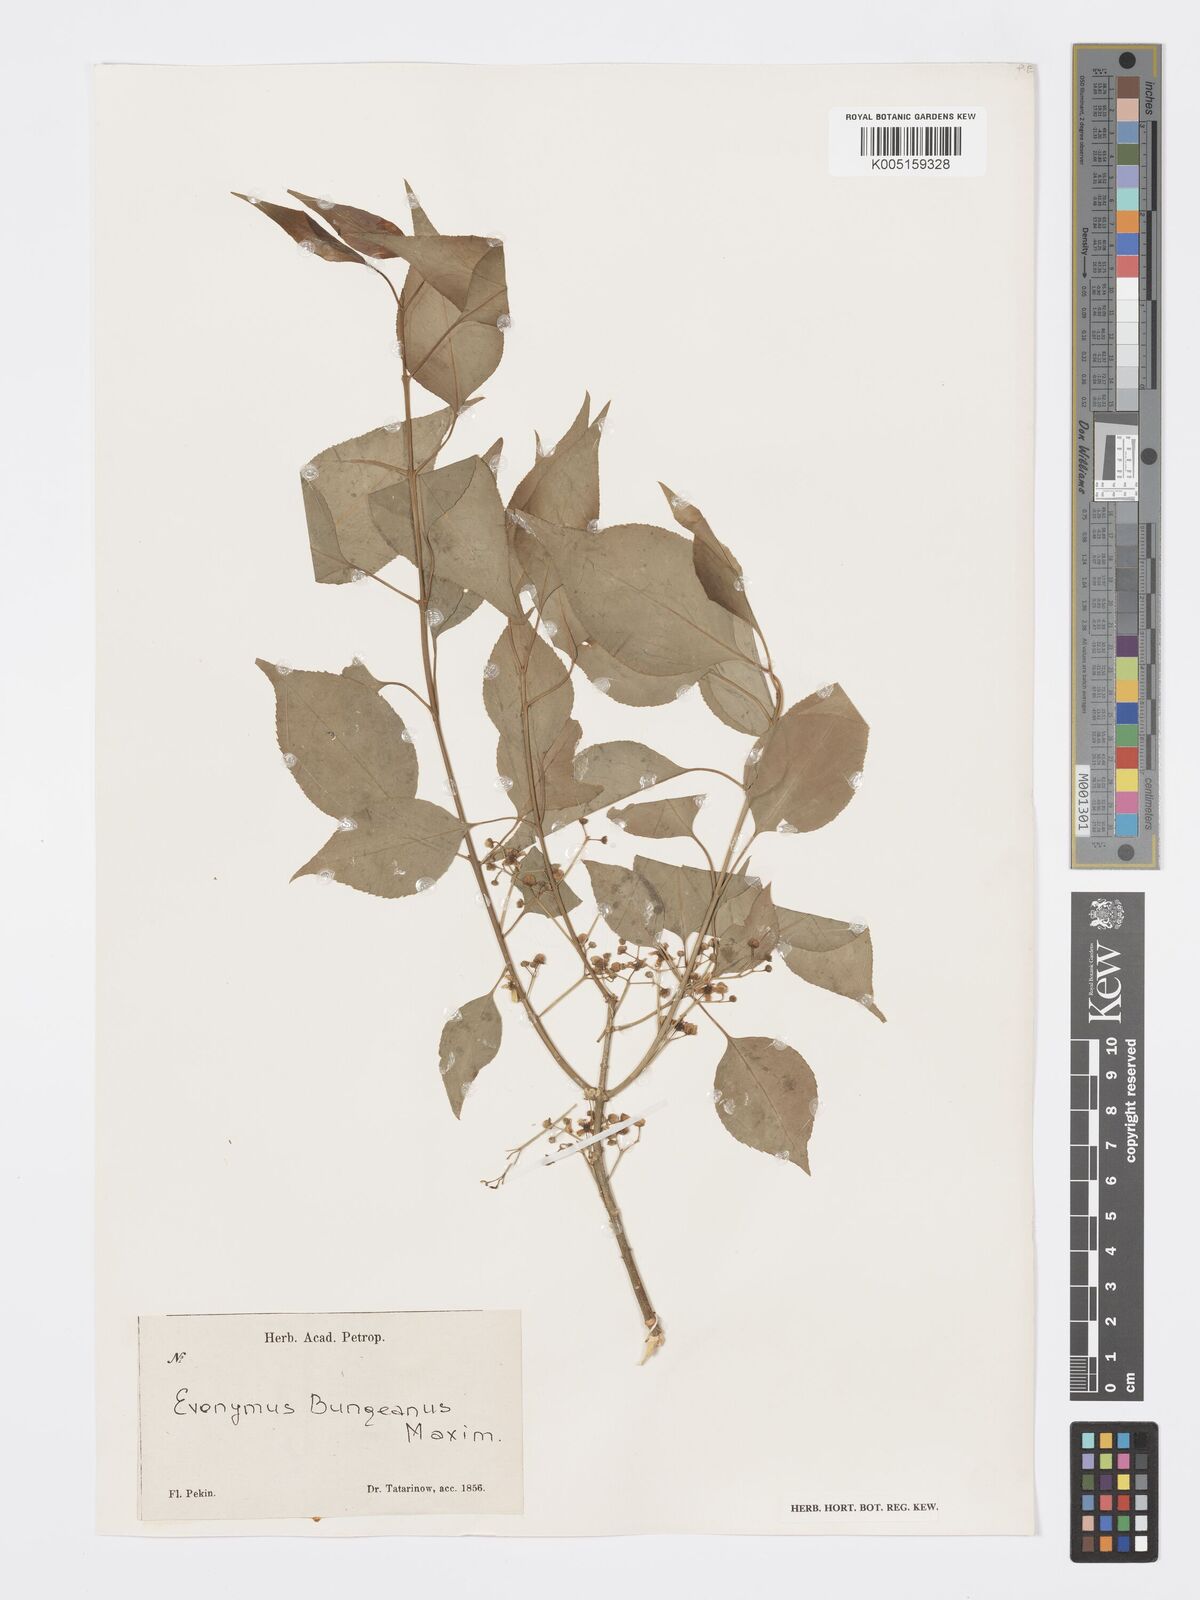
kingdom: Plantae
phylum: Tracheophyta
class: Magnoliopsida
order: Celastrales
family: Celastraceae
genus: Euonymus
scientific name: Euonymus maackii
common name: Hamilton's spindletree
